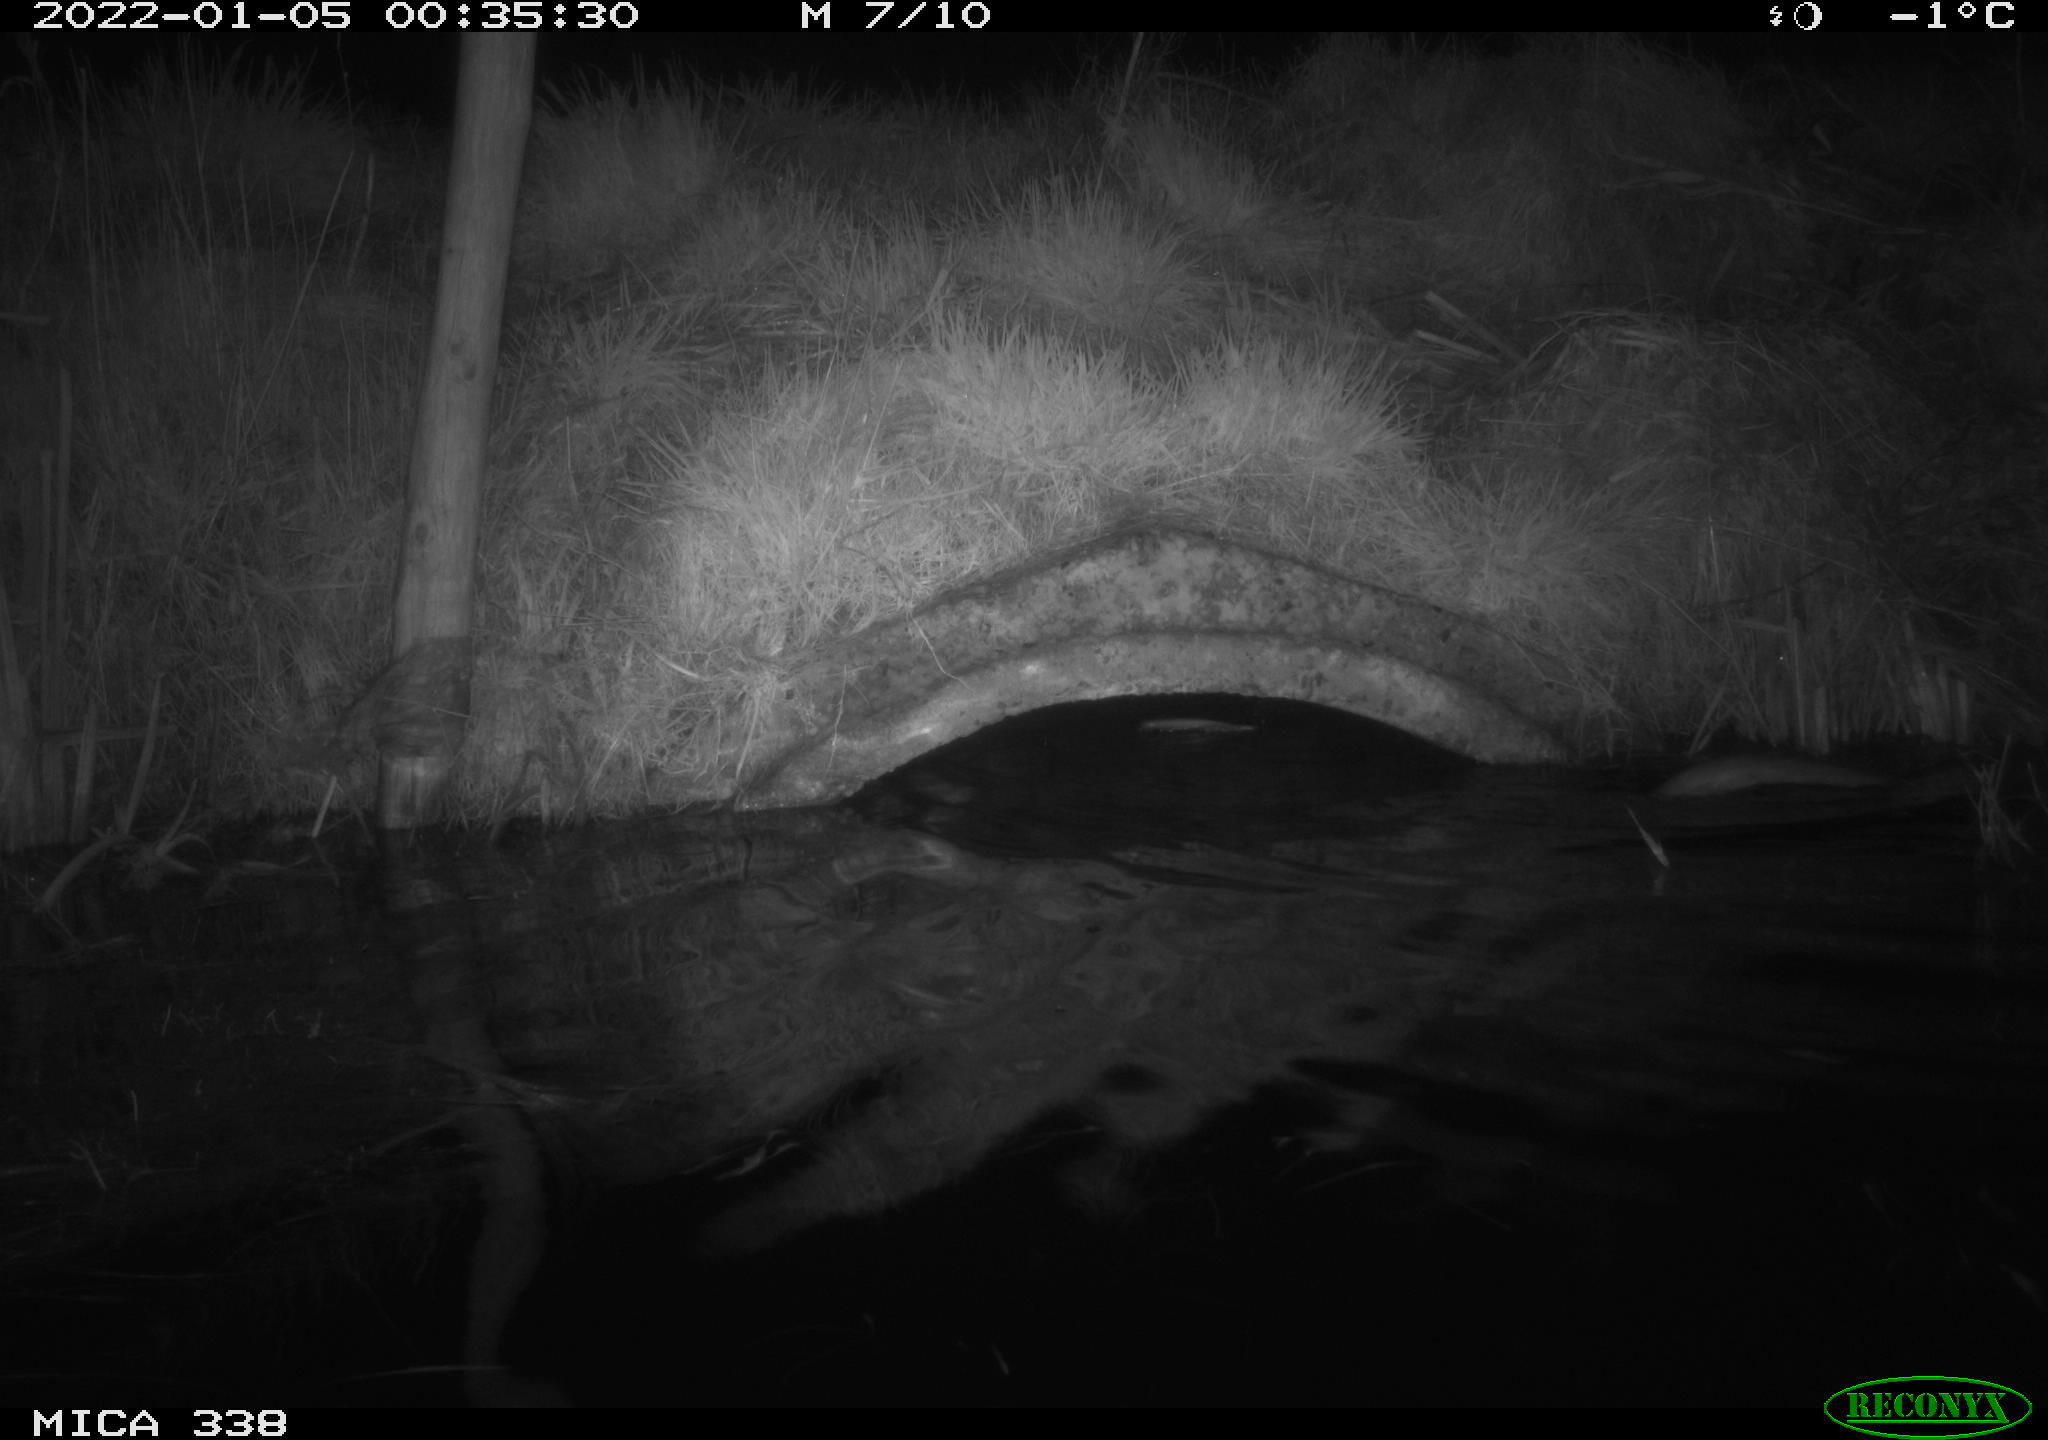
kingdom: Animalia
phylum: Chordata
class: Mammalia
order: Rodentia
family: Muridae
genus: Rattus
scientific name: Rattus norvegicus
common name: Brown rat
